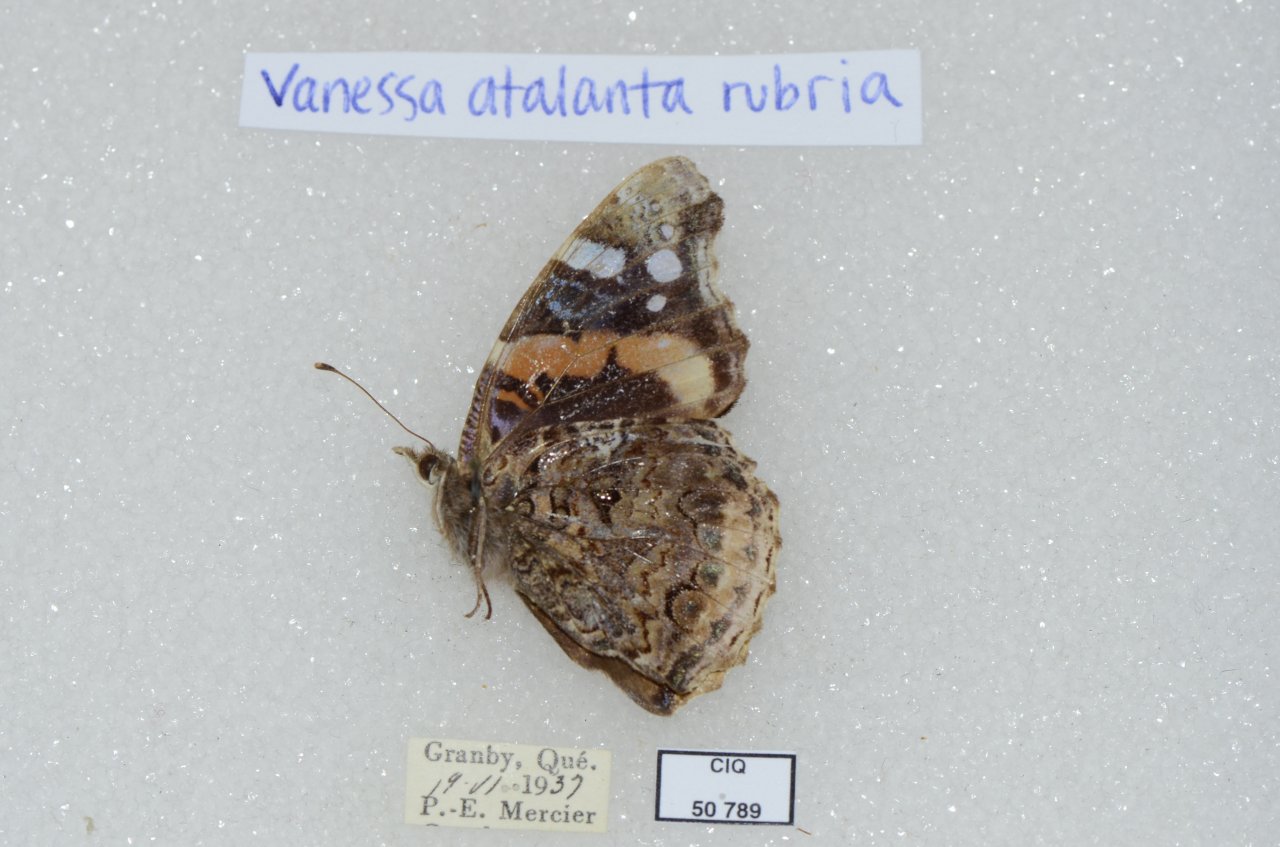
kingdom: Animalia
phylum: Arthropoda
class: Insecta
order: Lepidoptera
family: Nymphalidae
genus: Vanessa
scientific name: Vanessa atalanta
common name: Red Admiral
